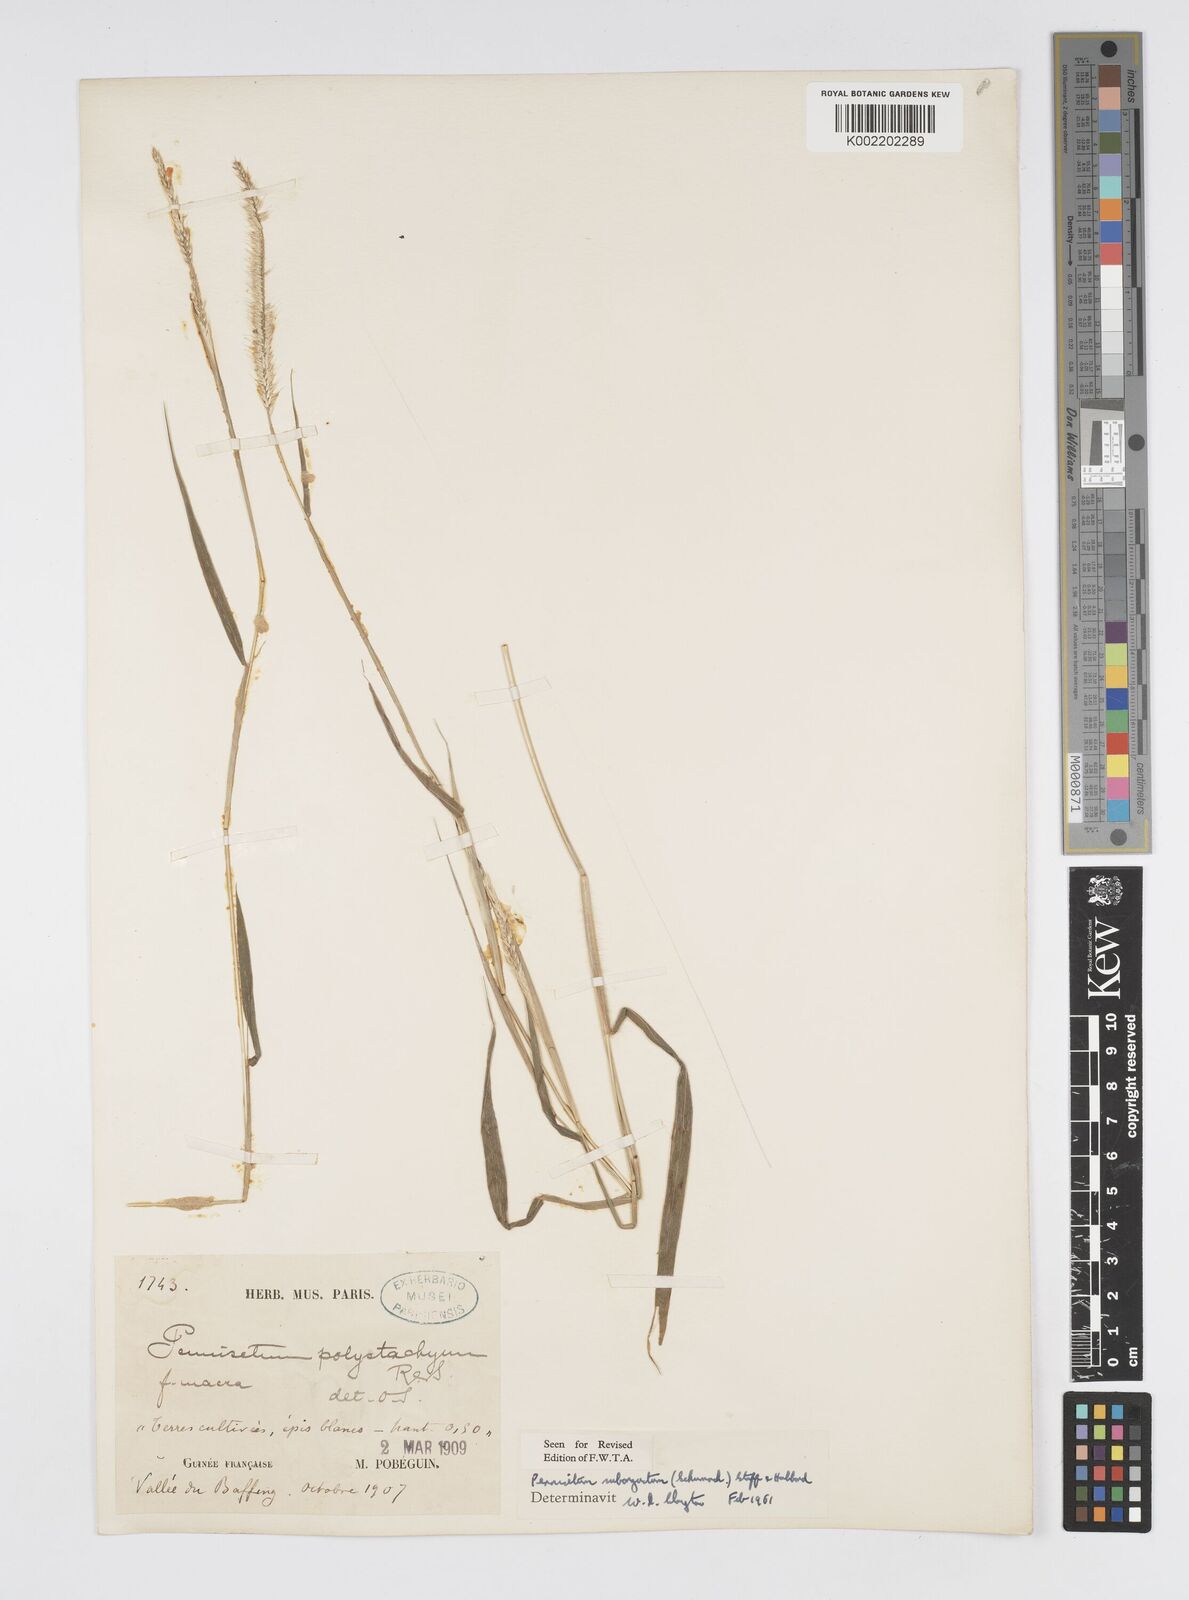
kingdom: Plantae
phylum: Tracheophyta
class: Liliopsida
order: Poales
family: Poaceae
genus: Setaria
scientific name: Setaria parviflora
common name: Knotroot bristle-grass
